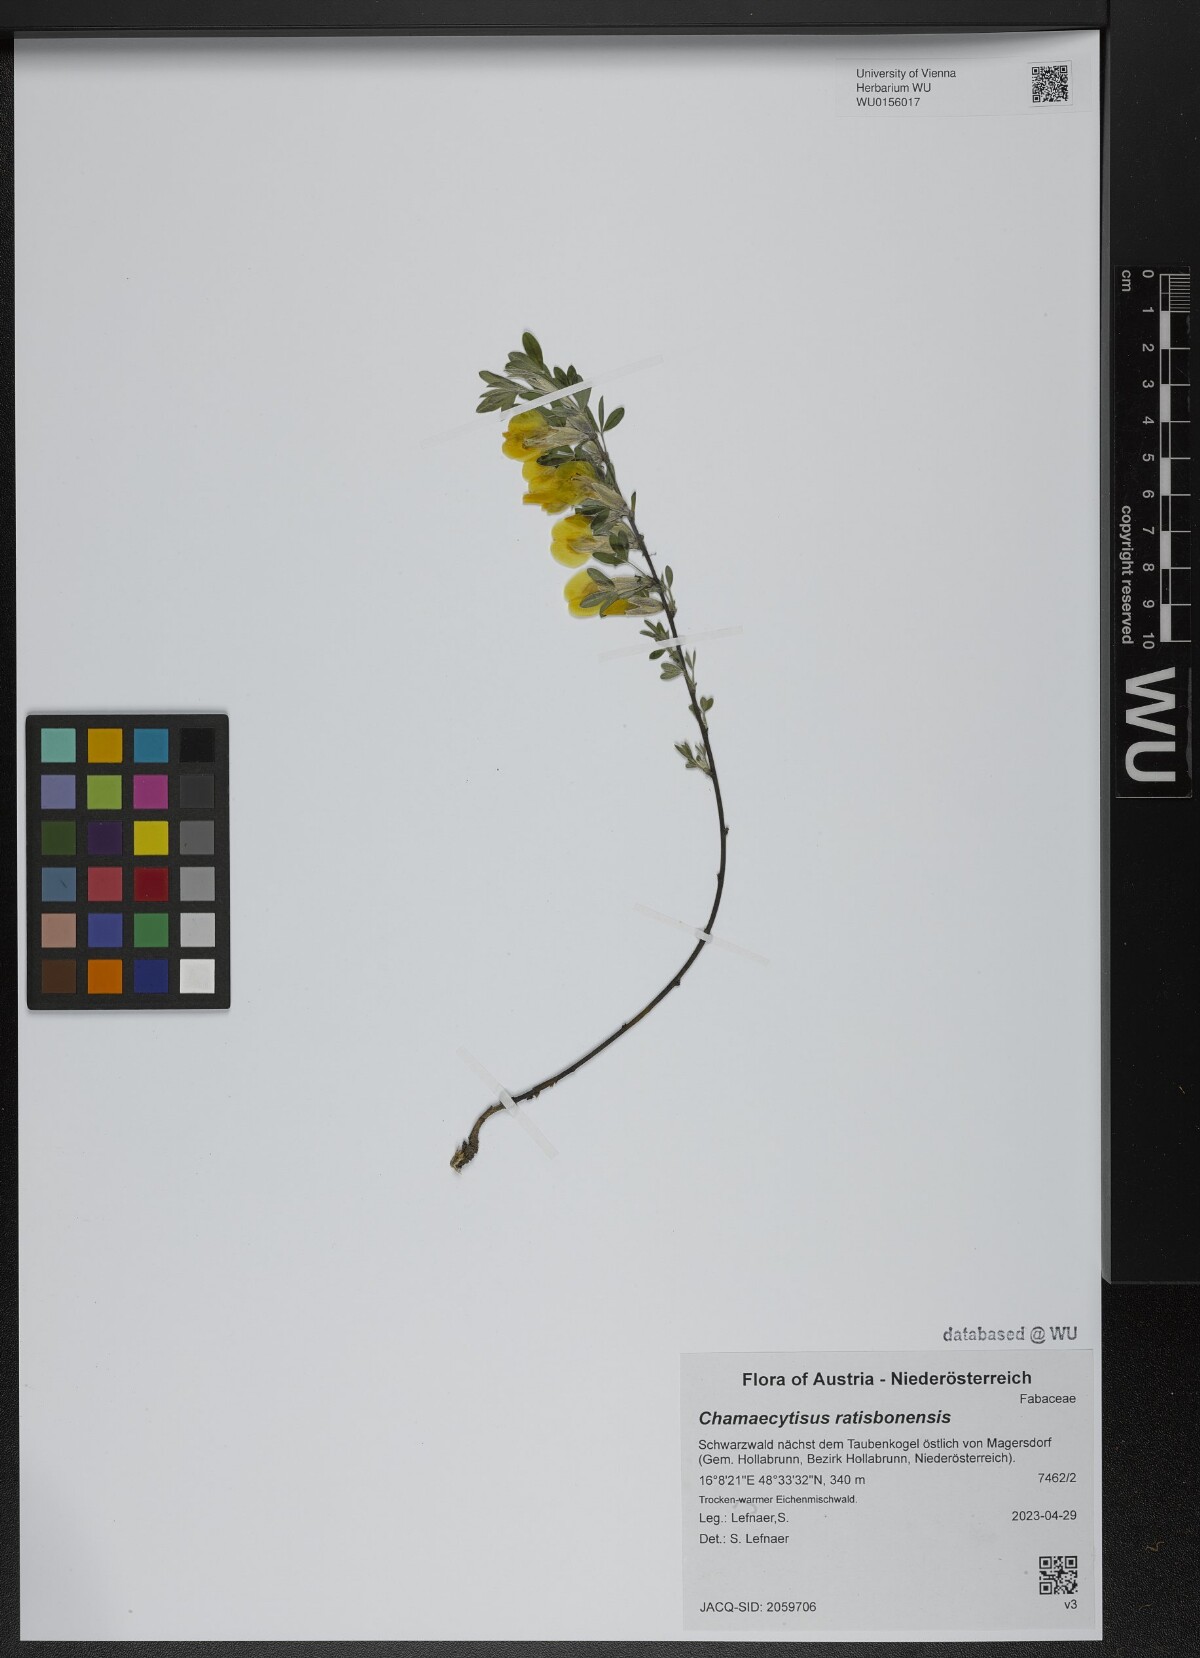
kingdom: Plantae
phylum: Tracheophyta
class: Magnoliopsida
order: Fabales
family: Fabaceae
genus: Chamaecytisus
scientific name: Chamaecytisus ratisbonensis
